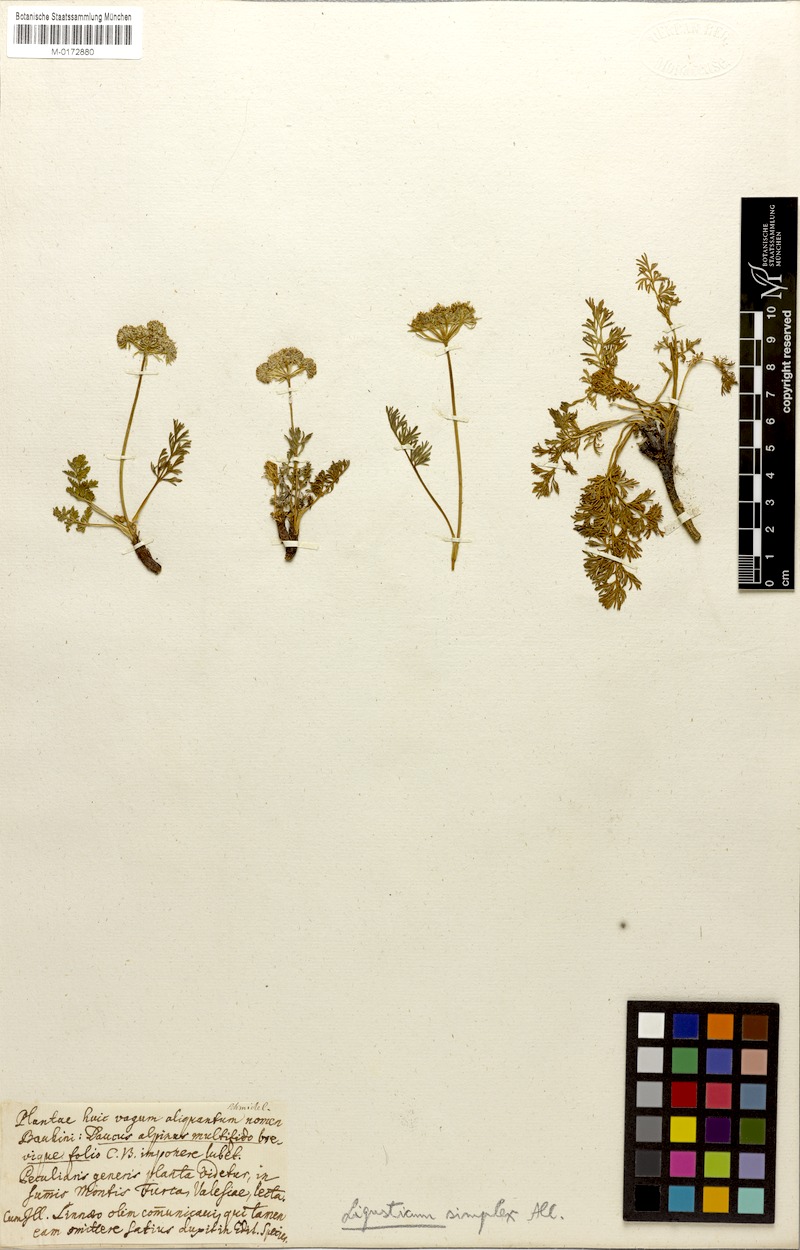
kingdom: Plantae
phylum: Tracheophyta
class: Magnoliopsida
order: Apiales
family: Apiaceae
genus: Pachypleurum
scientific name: Pachypleurum mutellinoides
